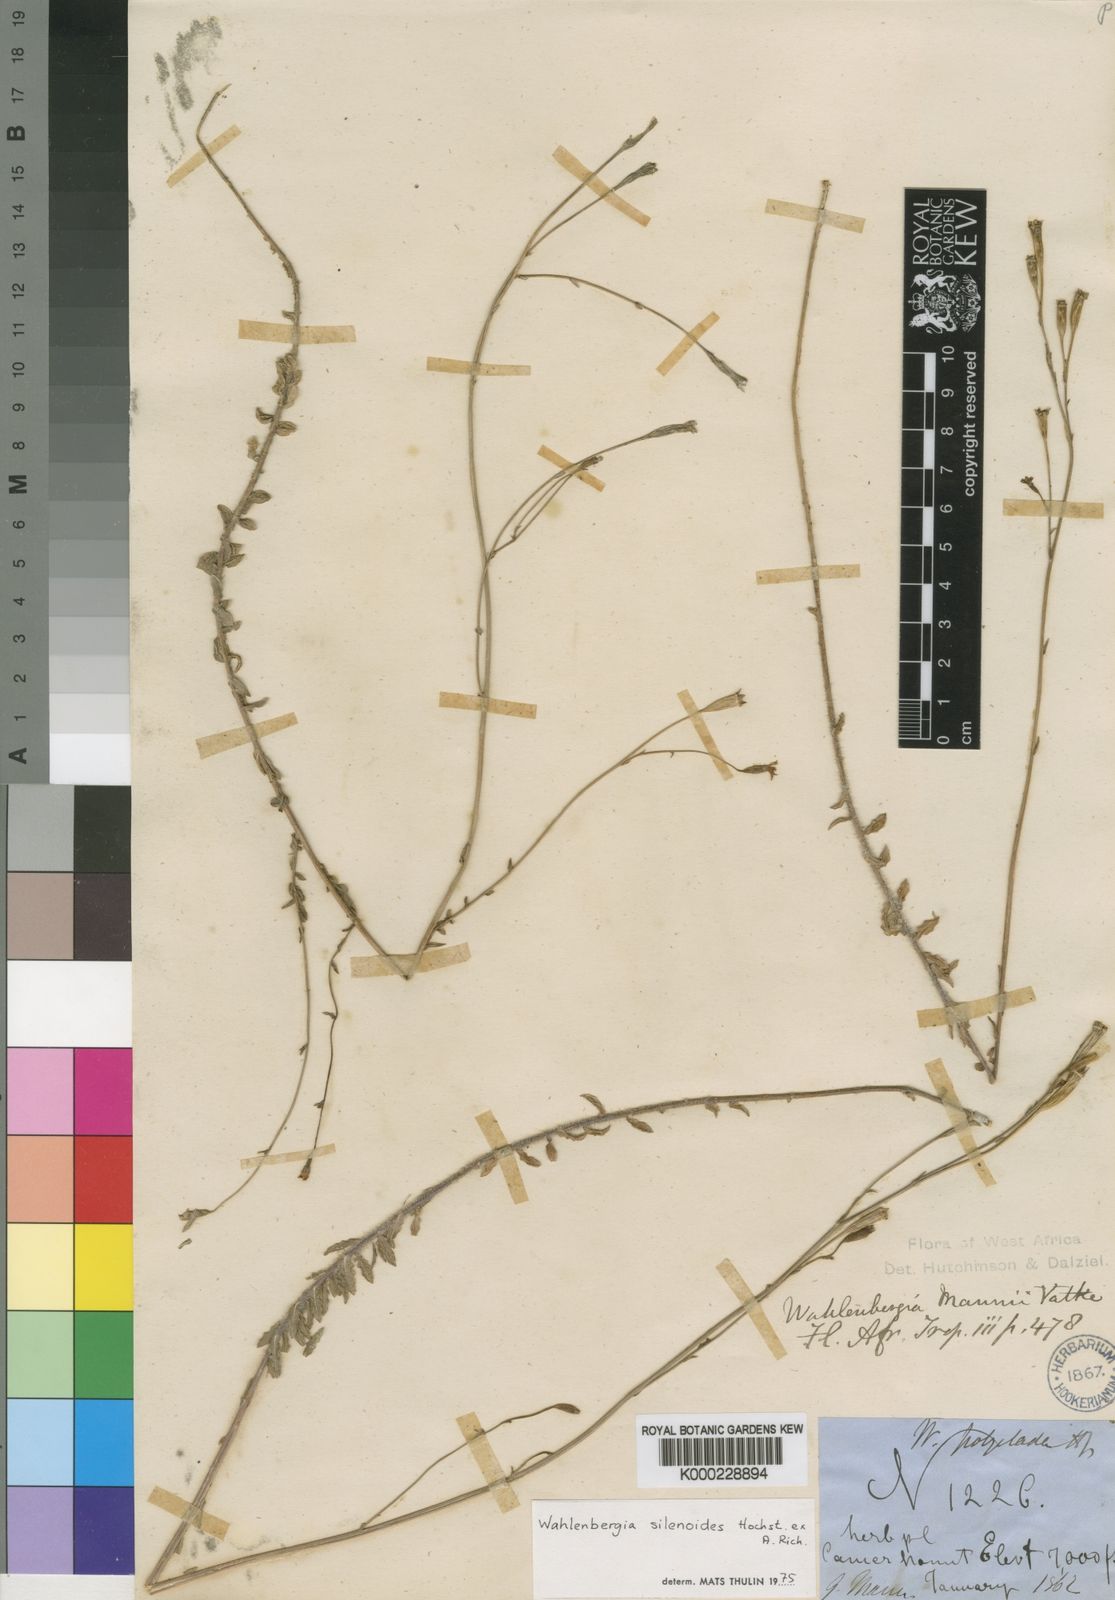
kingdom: Plantae
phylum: Tracheophyta
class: Magnoliopsida
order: Asterales
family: Campanulaceae
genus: Wahlenbergia
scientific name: Wahlenbergia silenoides
